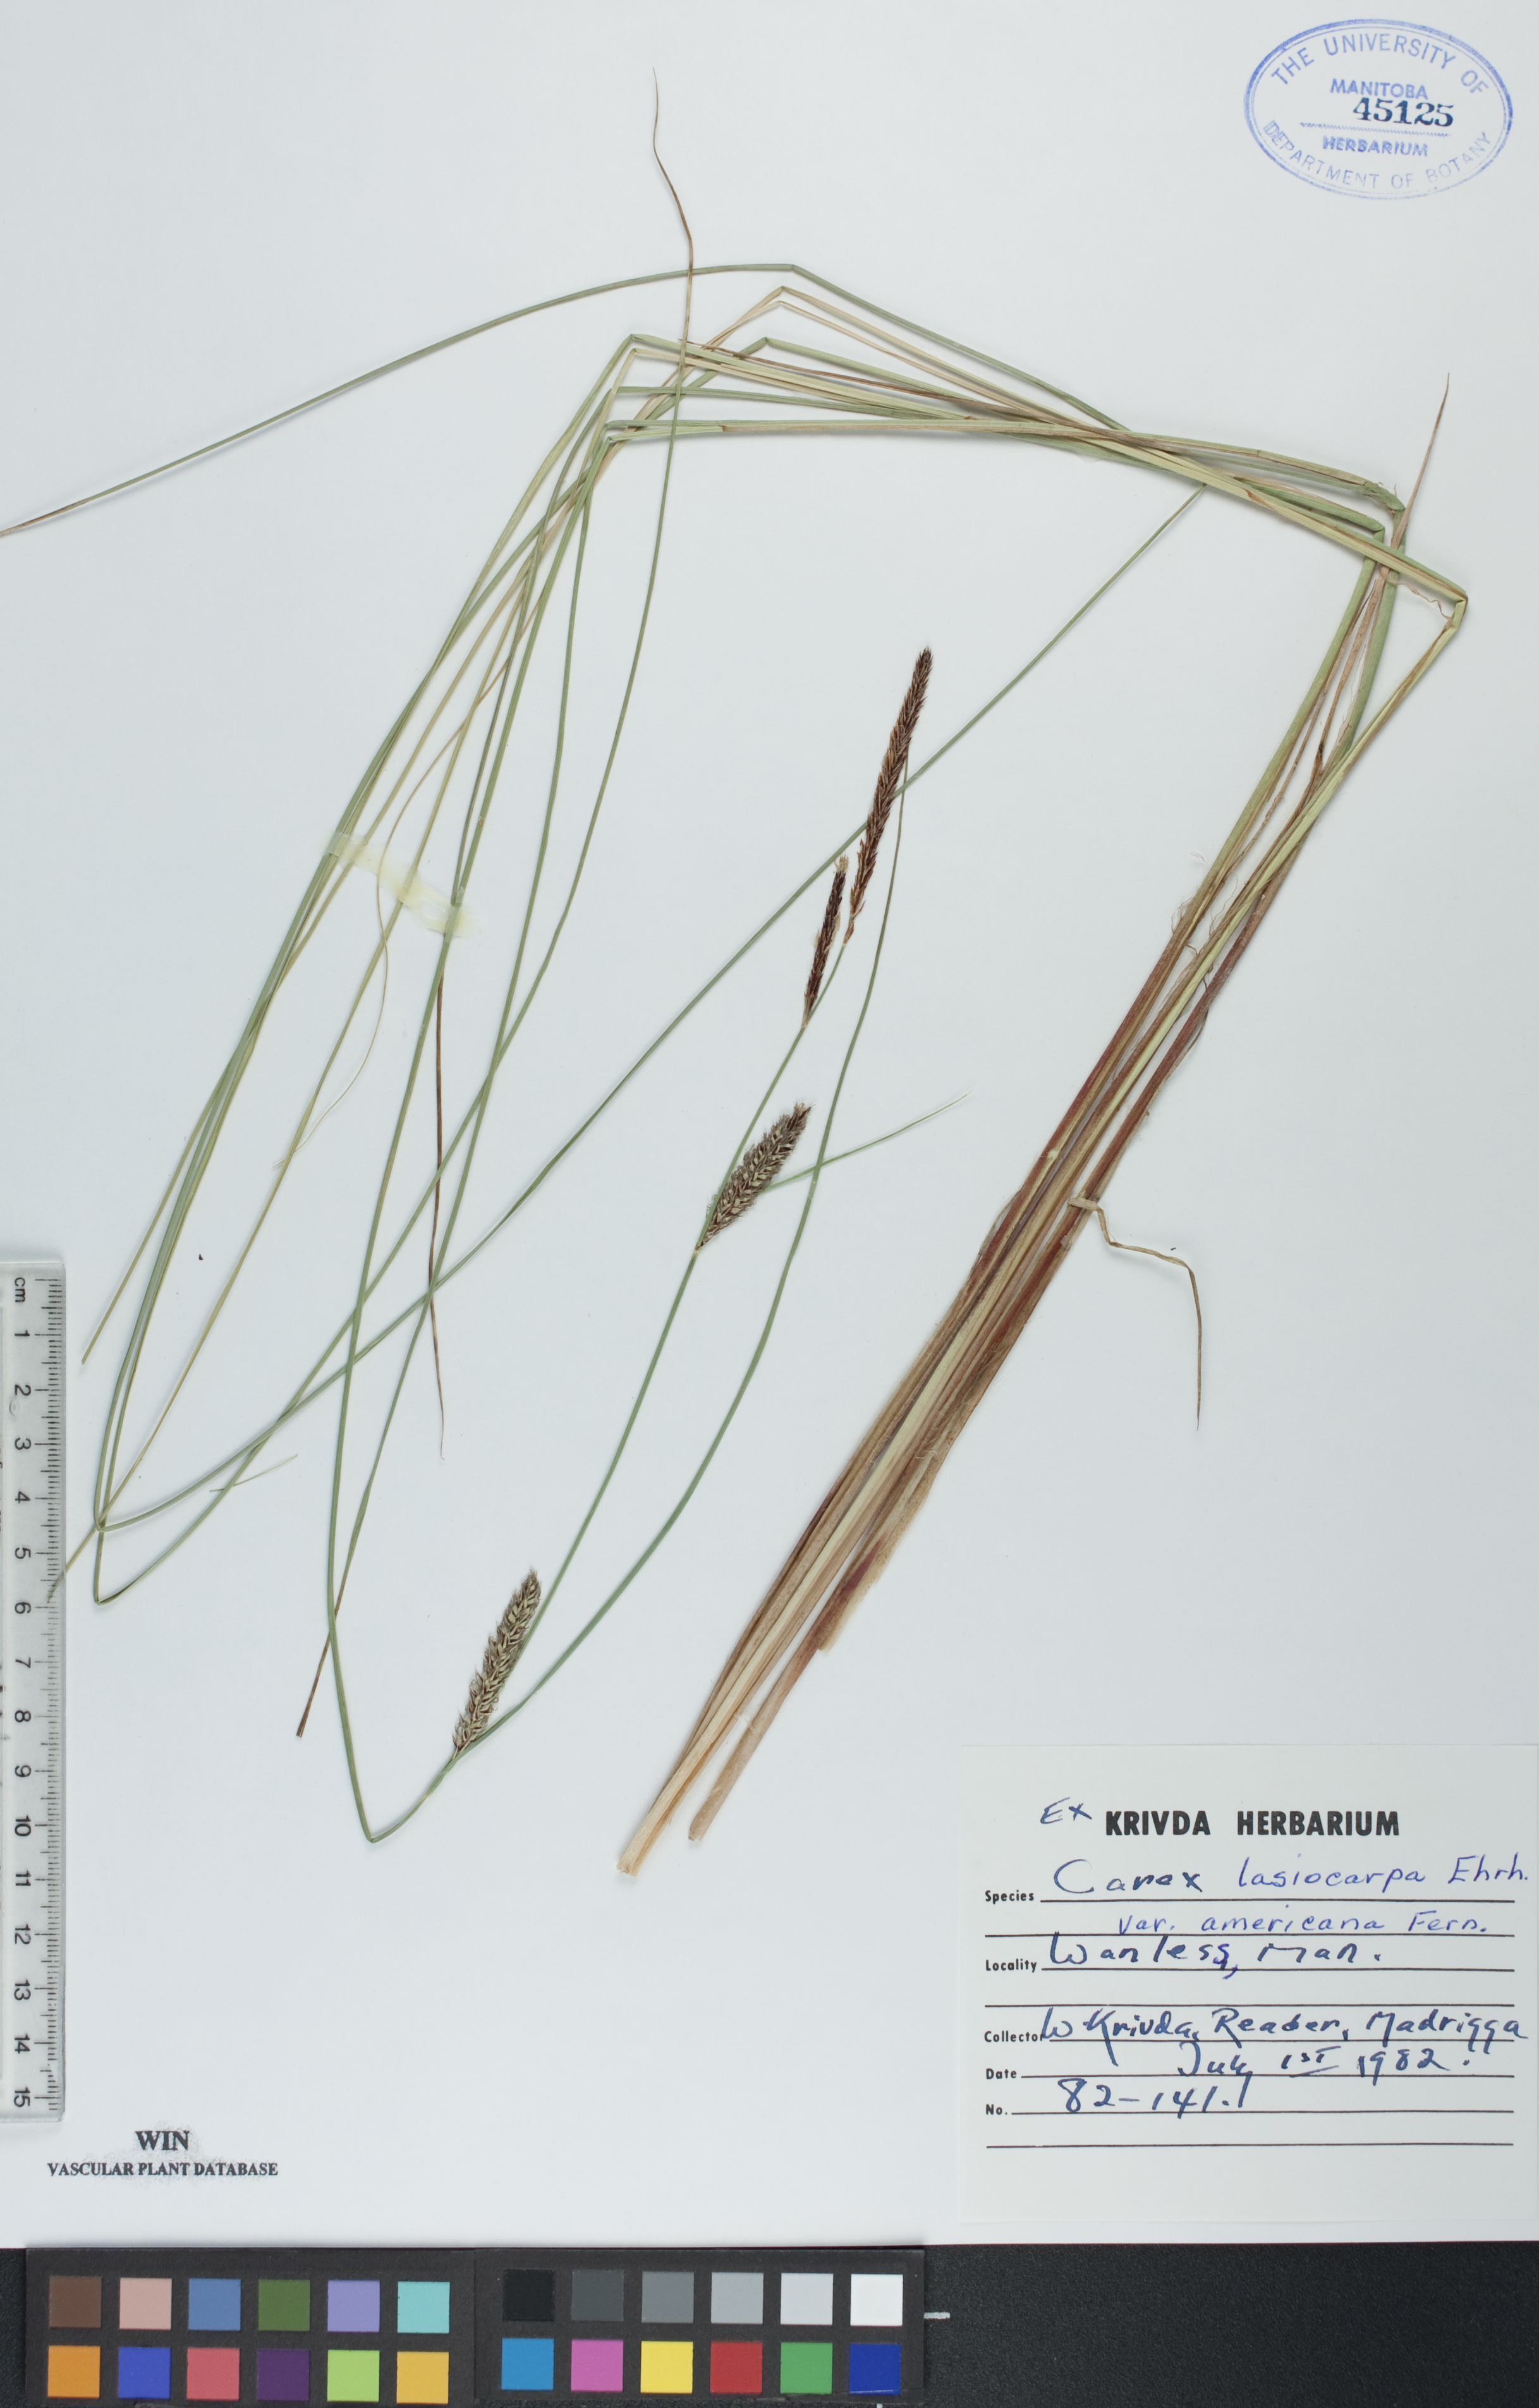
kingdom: Plantae
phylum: Tracheophyta
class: Liliopsida
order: Poales
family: Cyperaceae
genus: Carex
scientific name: Carex lasiocarpa
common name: Slender sedge
